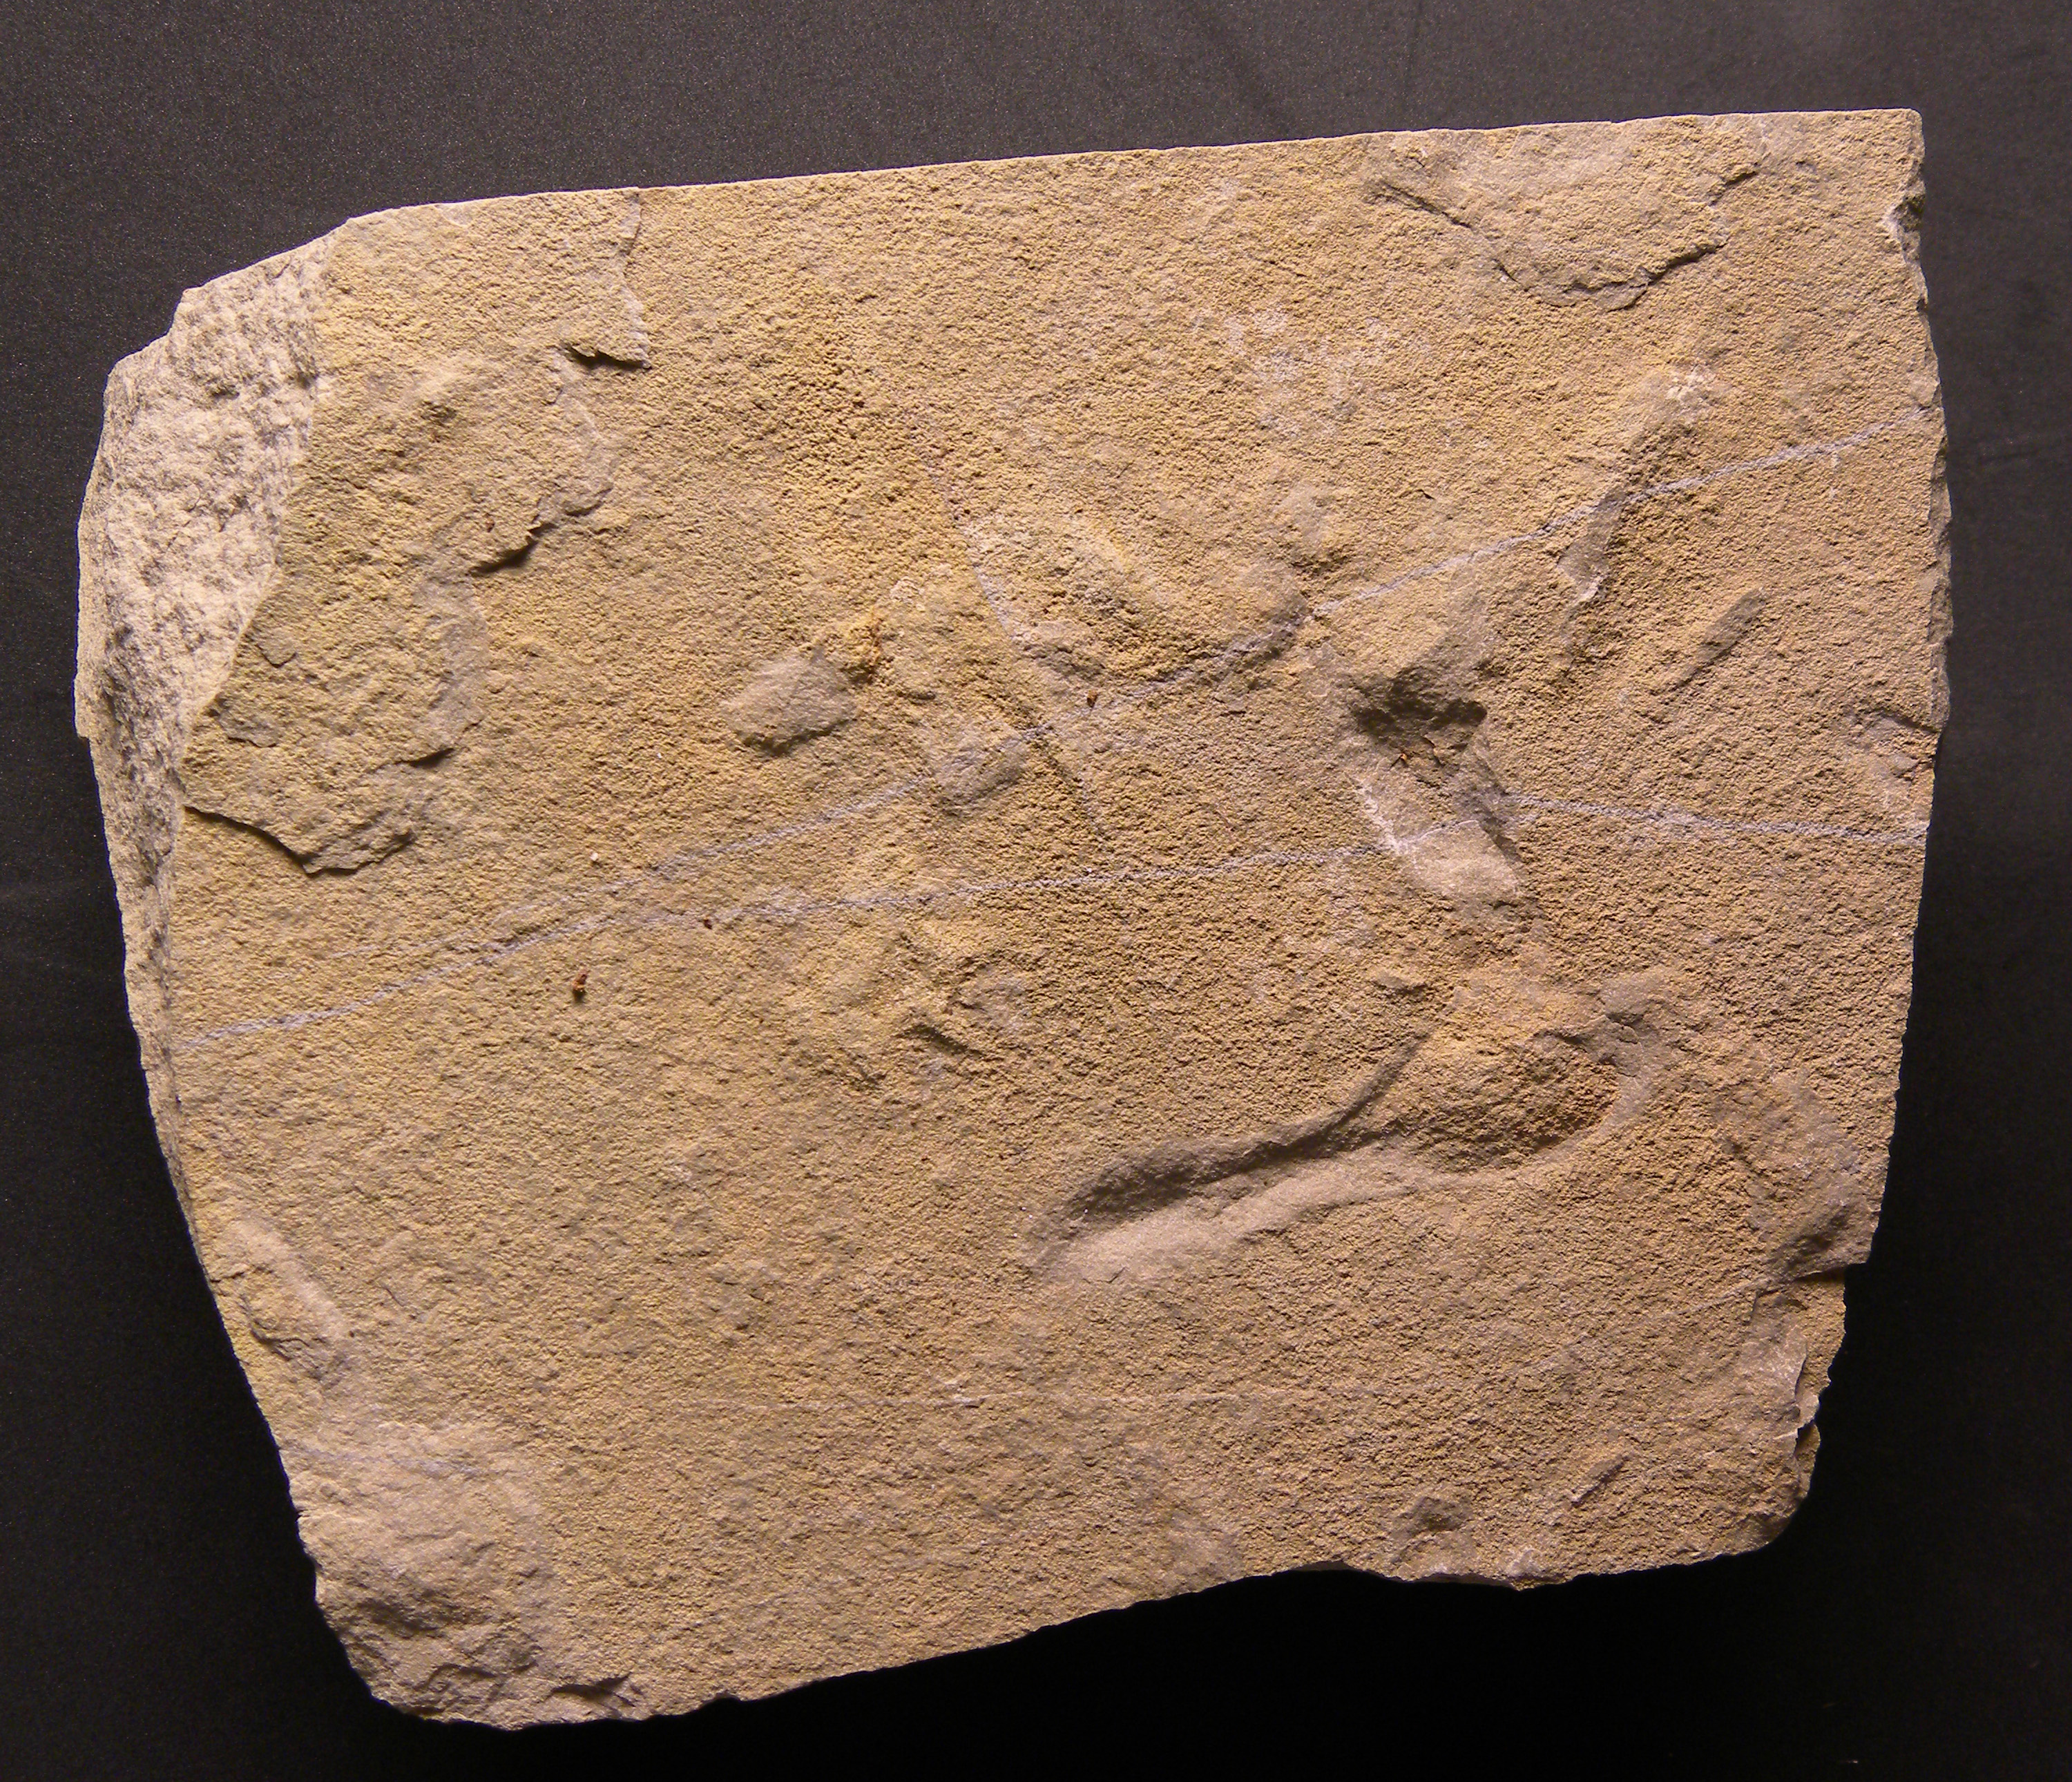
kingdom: Animalia
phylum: Chordata
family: Batrachopodidae
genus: Batrachopus
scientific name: Batrachopus Sauroidichnites deweyi
